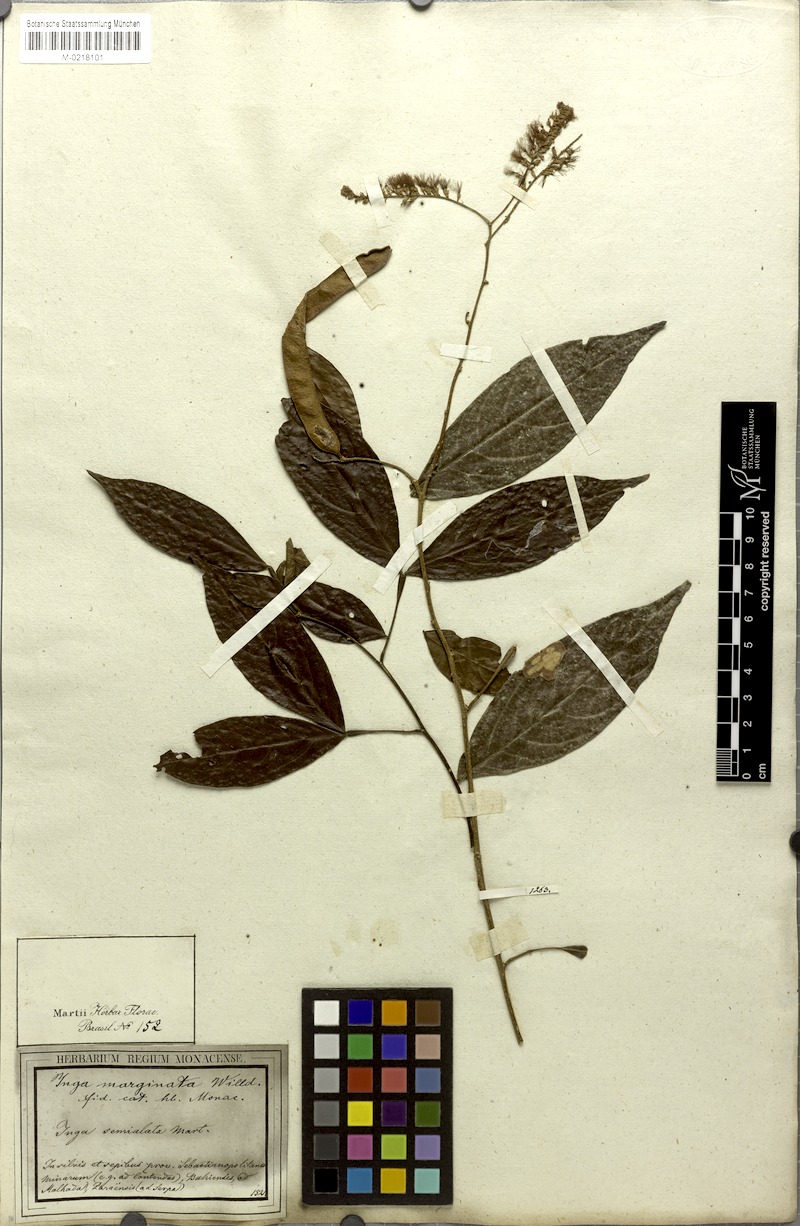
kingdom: Plantae
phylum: Tracheophyta
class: Magnoliopsida
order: Fabales
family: Fabaceae
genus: Inga
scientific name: Inga marginata
